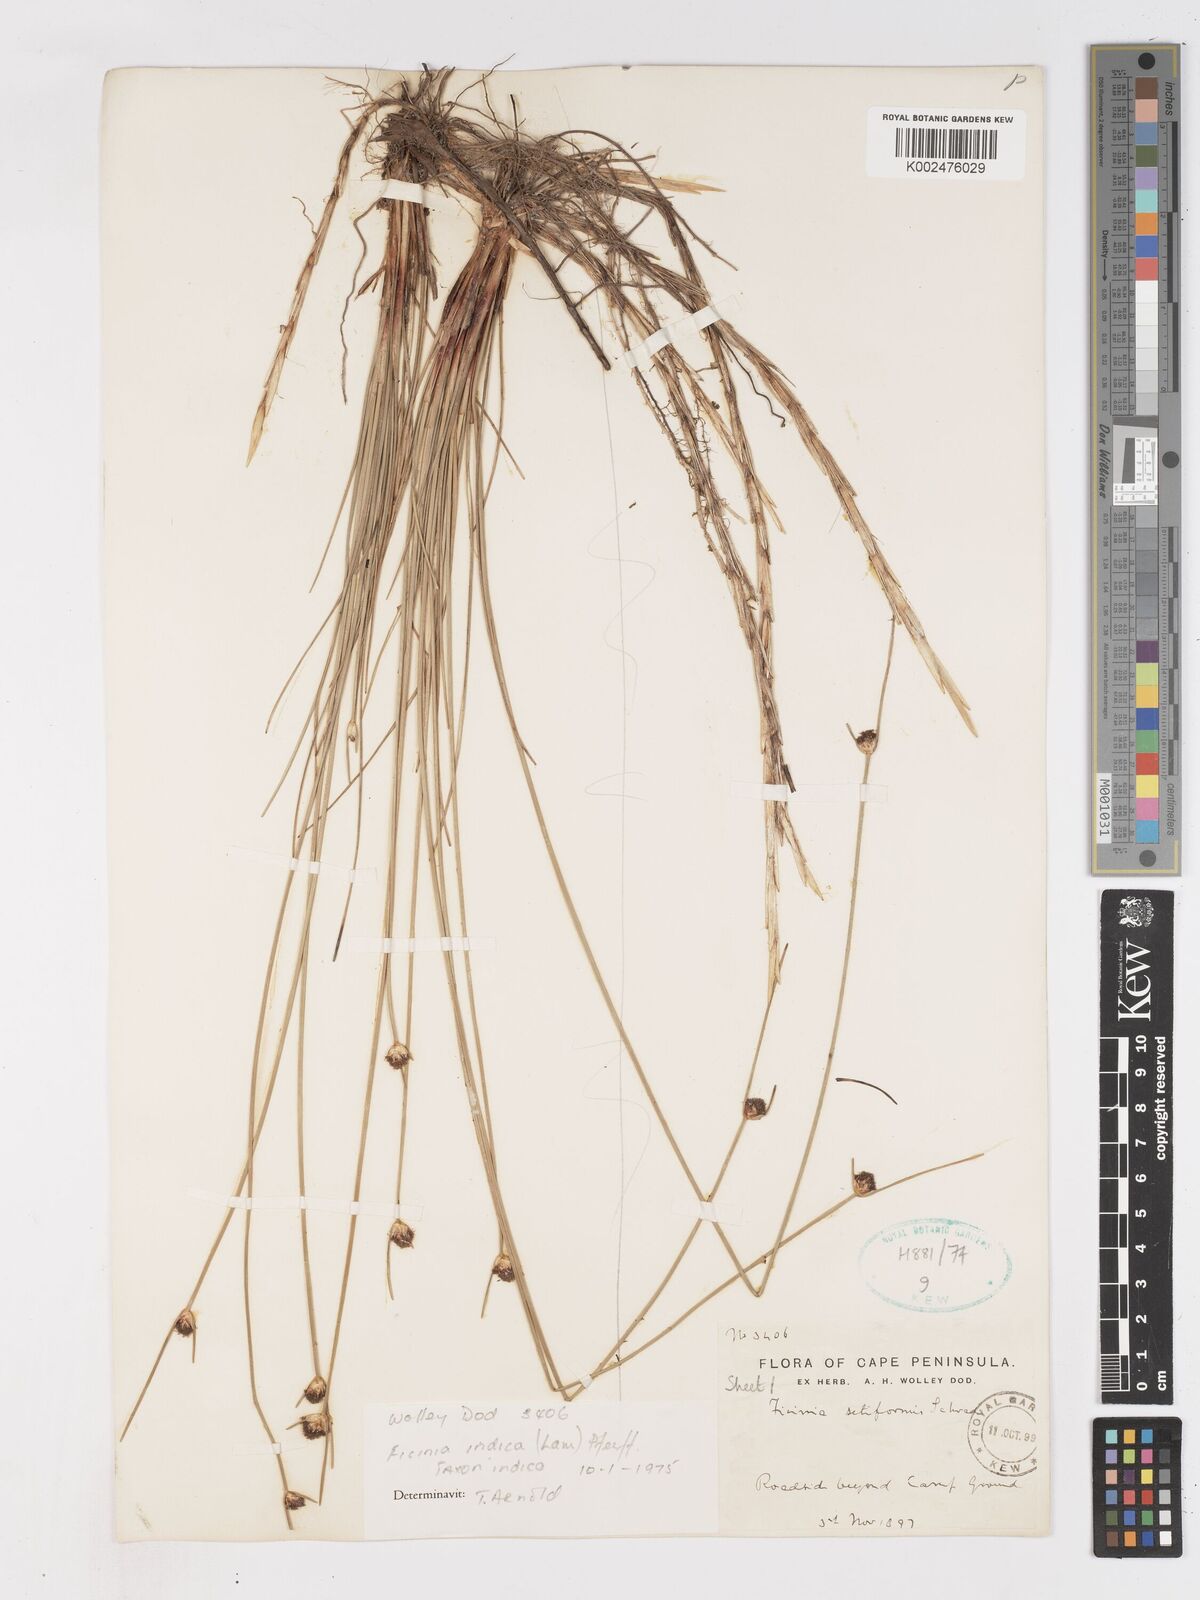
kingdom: Plantae
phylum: Tracheophyta
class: Liliopsida
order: Poales
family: Cyperaceae
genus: Ficinia
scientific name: Ficinia indica
